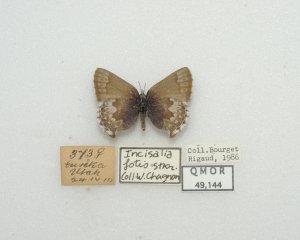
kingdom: Animalia
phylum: Arthropoda
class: Insecta
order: Lepidoptera
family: Lycaenidae
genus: Callophrys
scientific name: Callophrys fotis
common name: Desert Elfin
